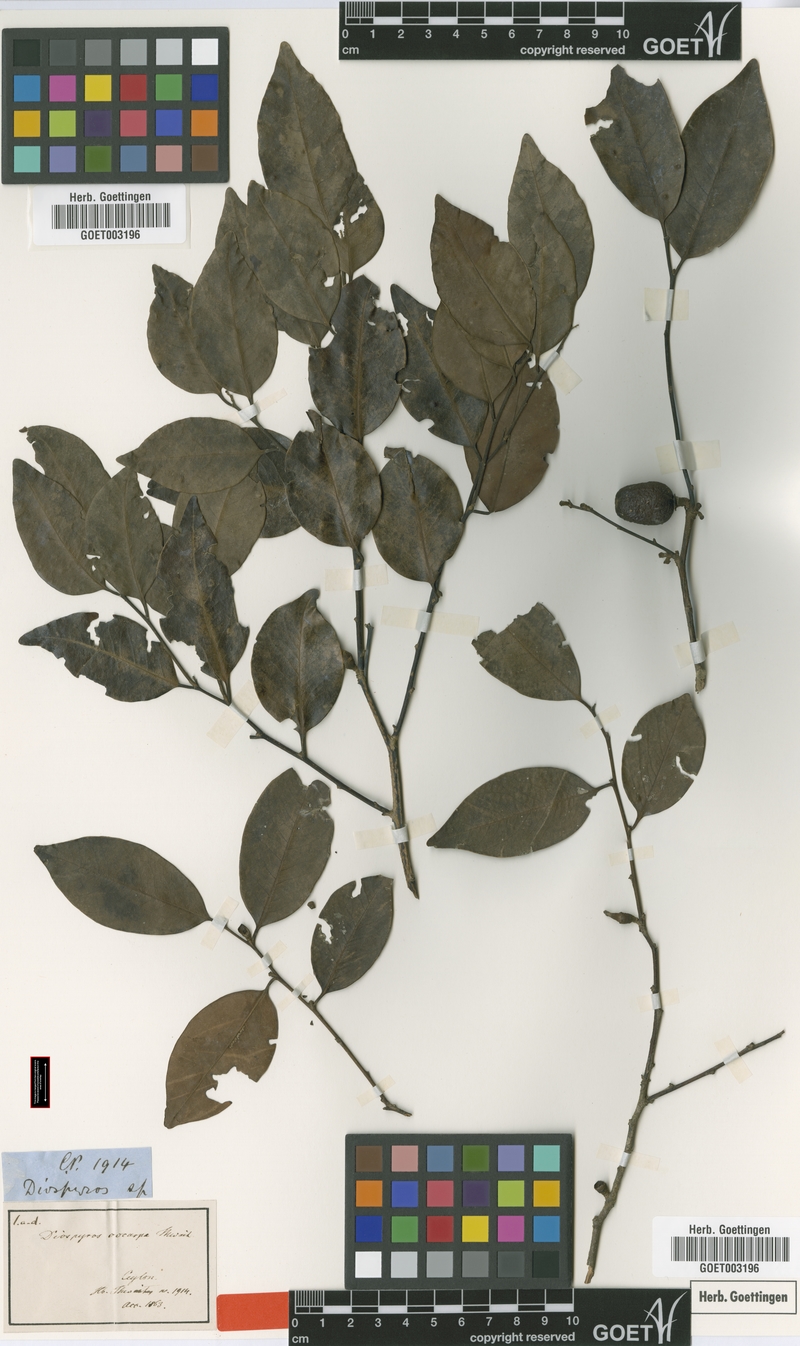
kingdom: Plantae
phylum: Tracheophyta
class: Magnoliopsida
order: Ericales
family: Ebenaceae
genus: Diospyros
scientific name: Diospyros oocarpa
